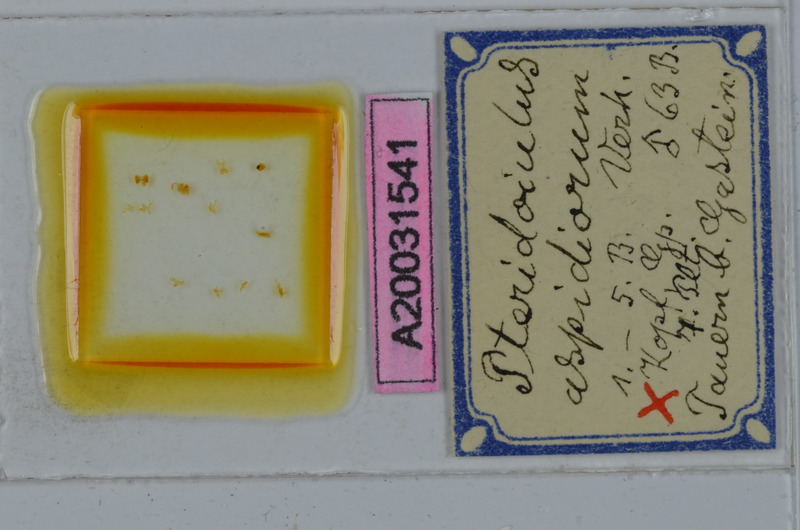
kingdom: Animalia
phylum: Arthropoda
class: Diplopoda
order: Julida
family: Julidae
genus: Pteridoiulus
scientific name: Pteridoiulus aspidiorum
